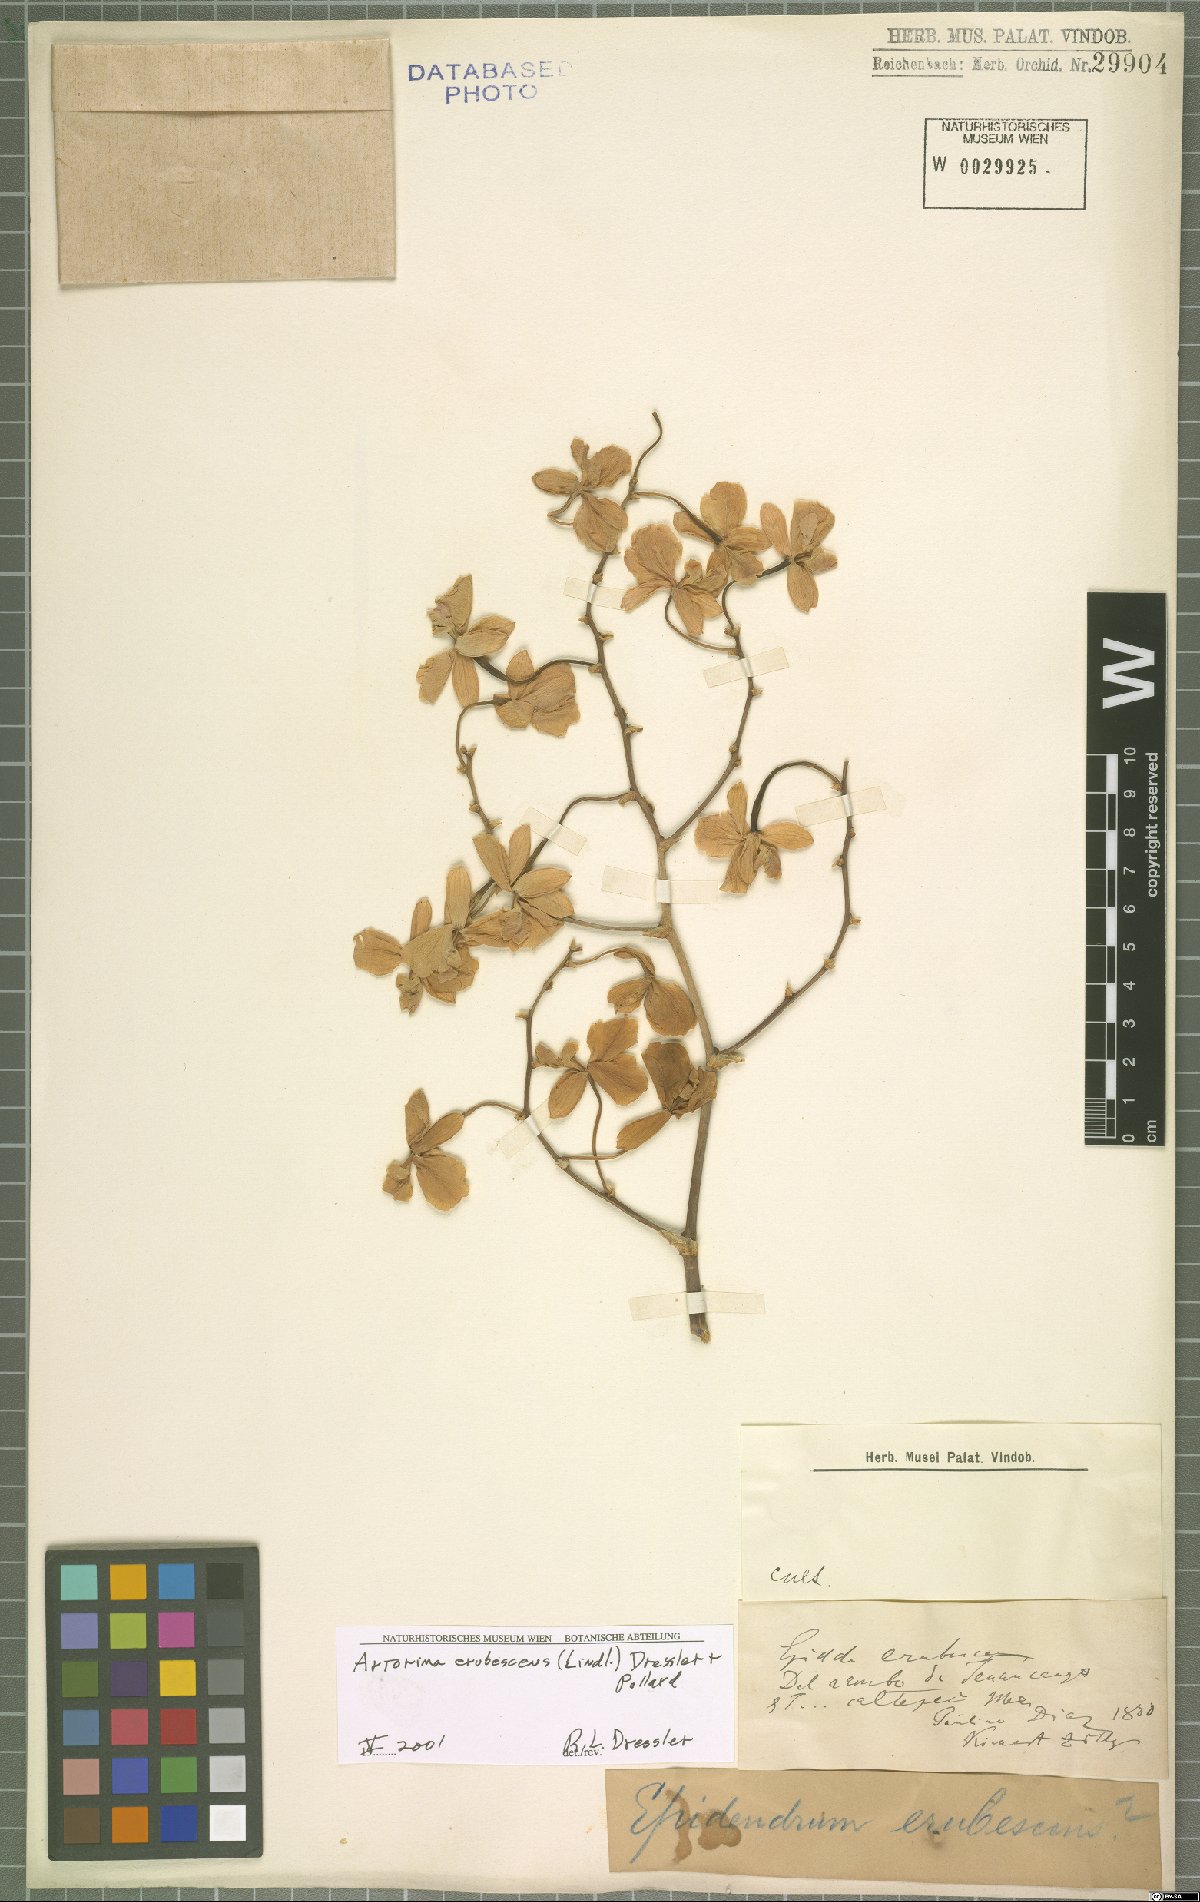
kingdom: Plantae
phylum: Tracheophyta
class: Liliopsida
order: Asparagales
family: Orchidaceae
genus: Artorima
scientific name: Artorima erubescens
